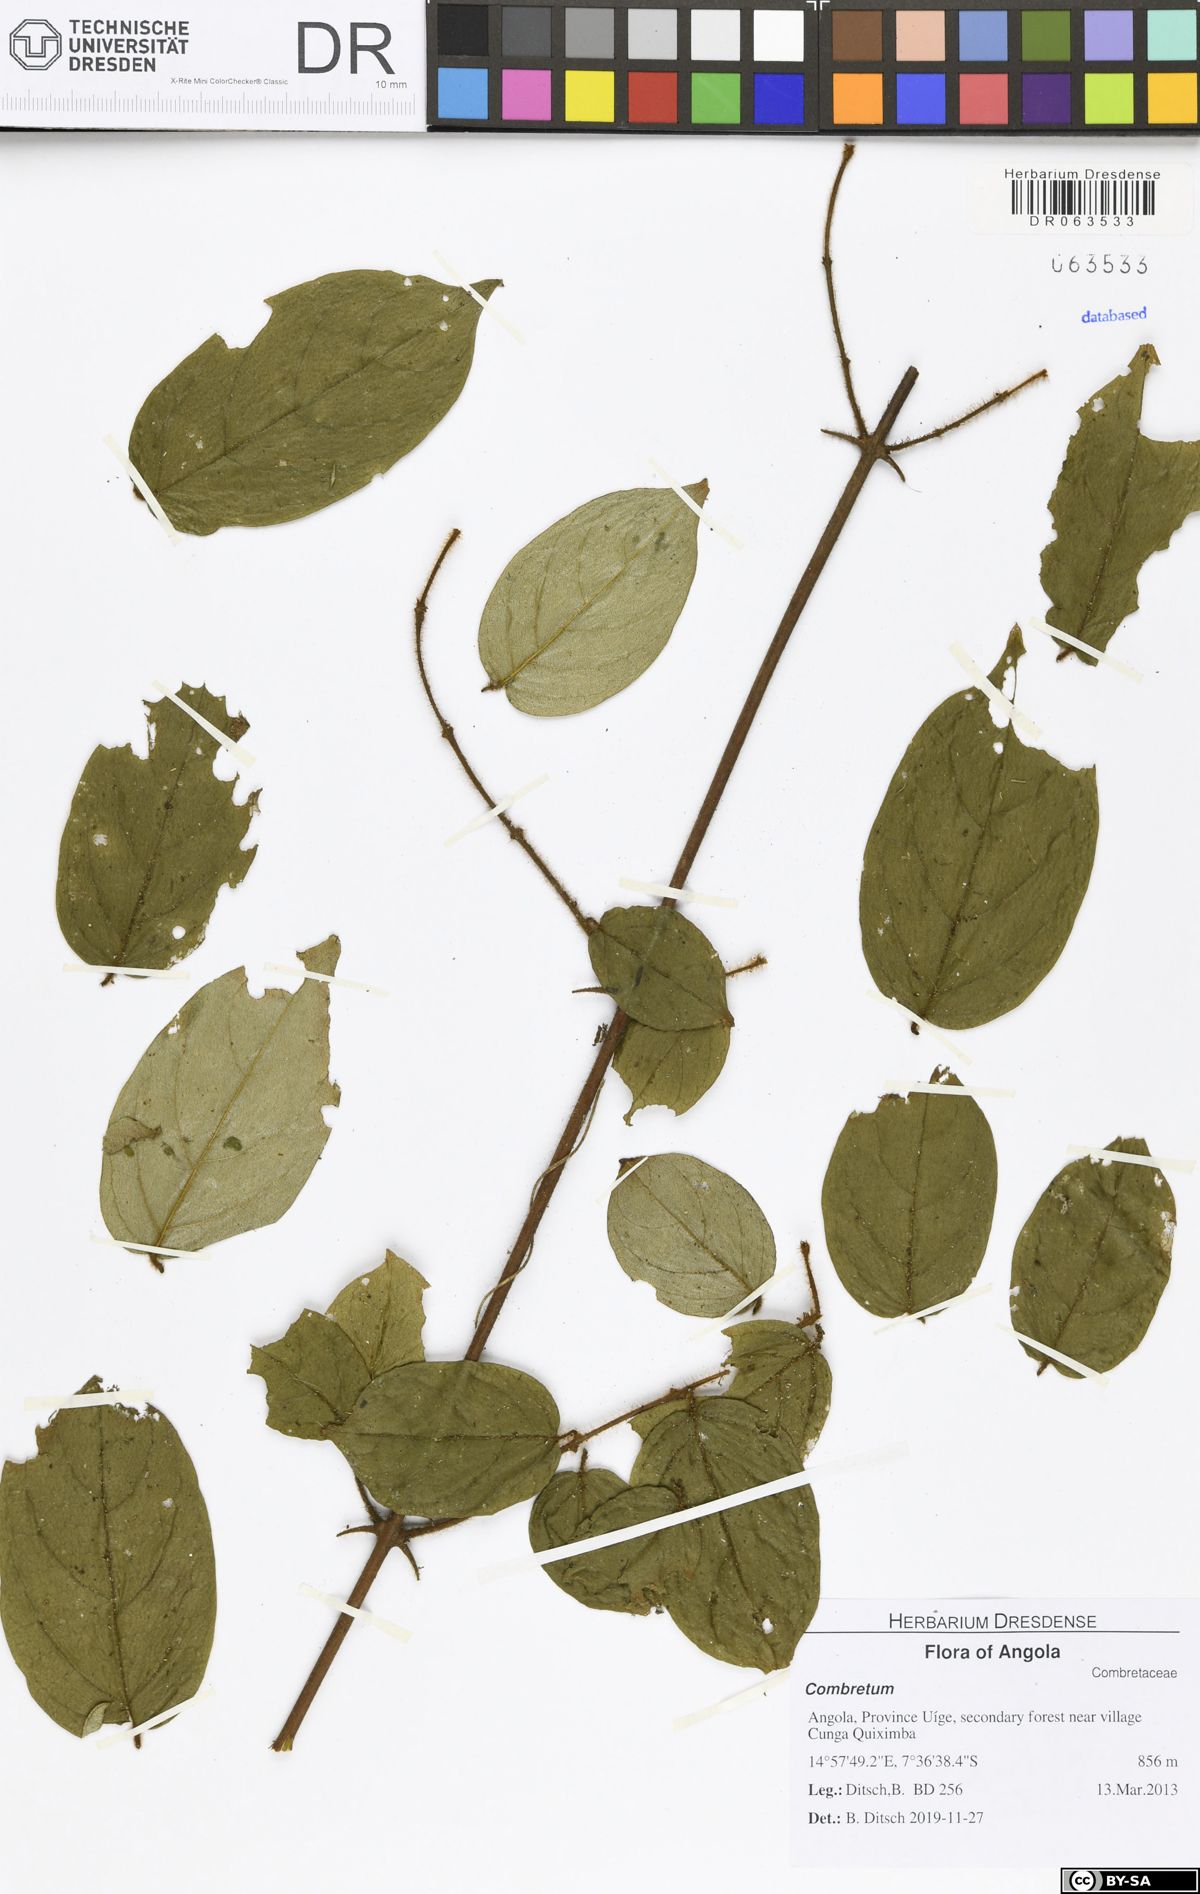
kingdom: Plantae
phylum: Tracheophyta
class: Magnoliopsida
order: Myrtales
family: Combretaceae
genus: Combretum
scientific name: Combretum
